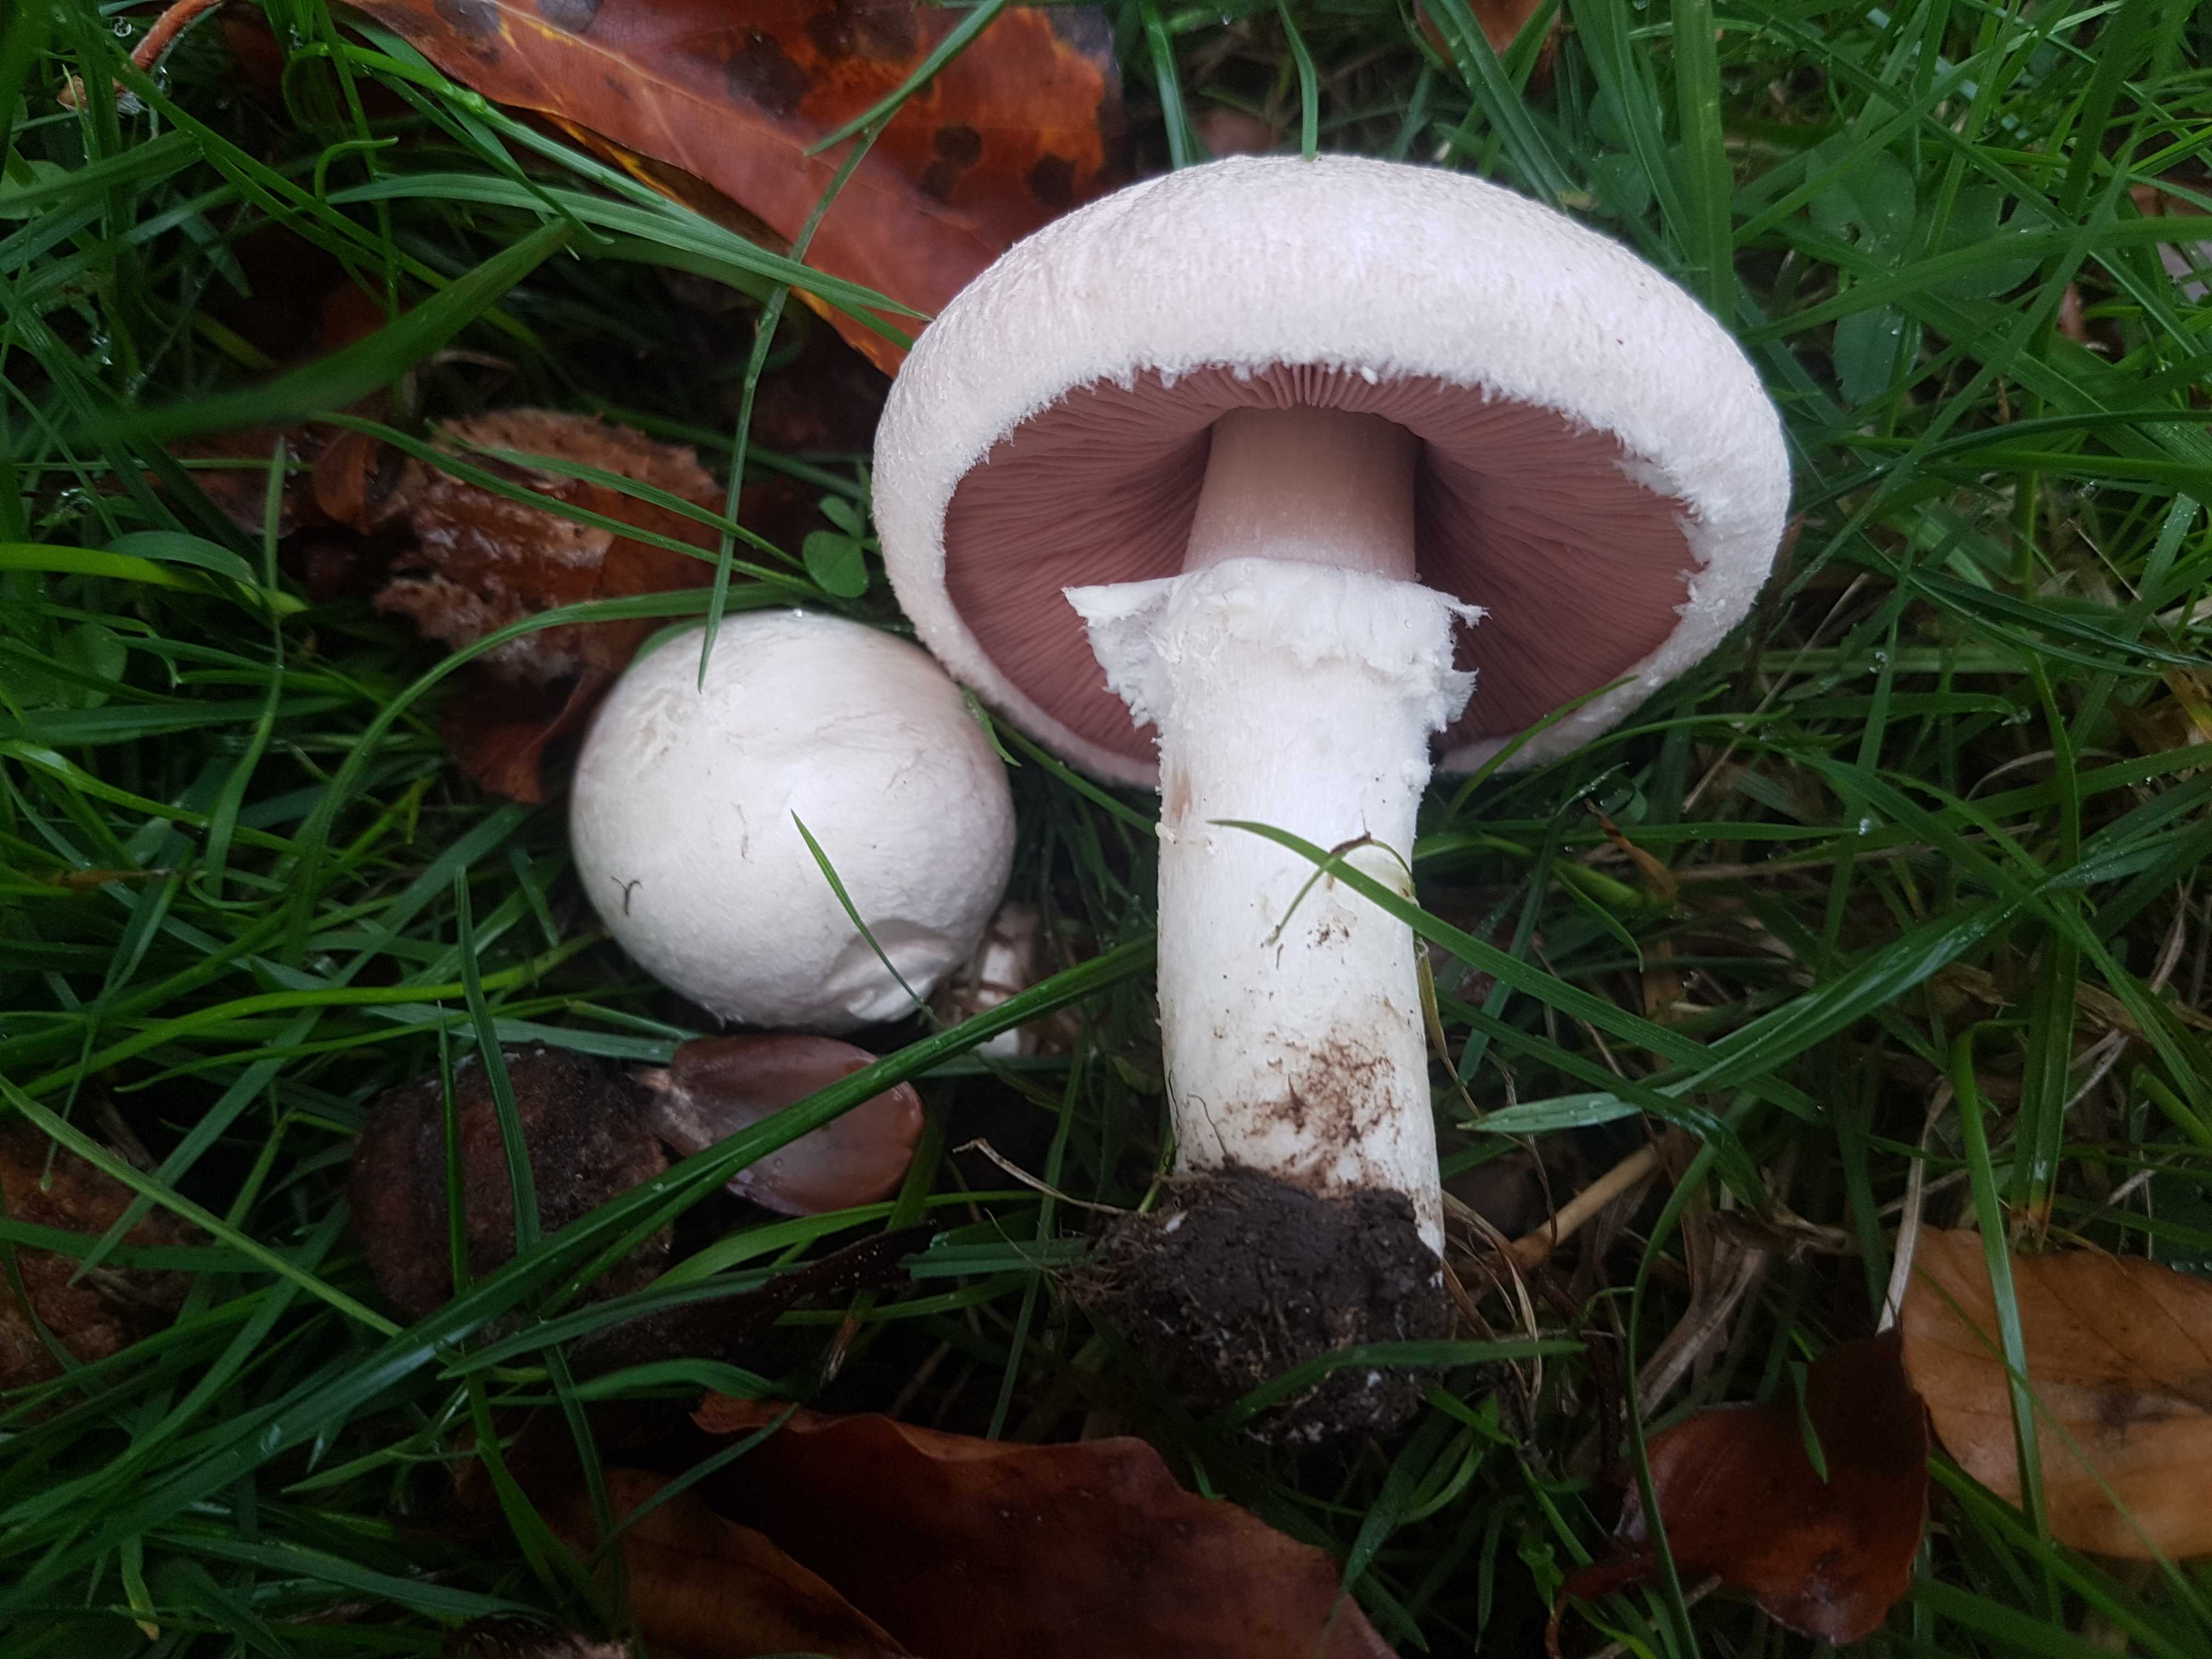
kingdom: Fungi
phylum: Basidiomycota
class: Agaricomycetes
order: Agaricales
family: Agaricaceae
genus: Agaricus
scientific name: Agaricus campestris
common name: mark-champignon
